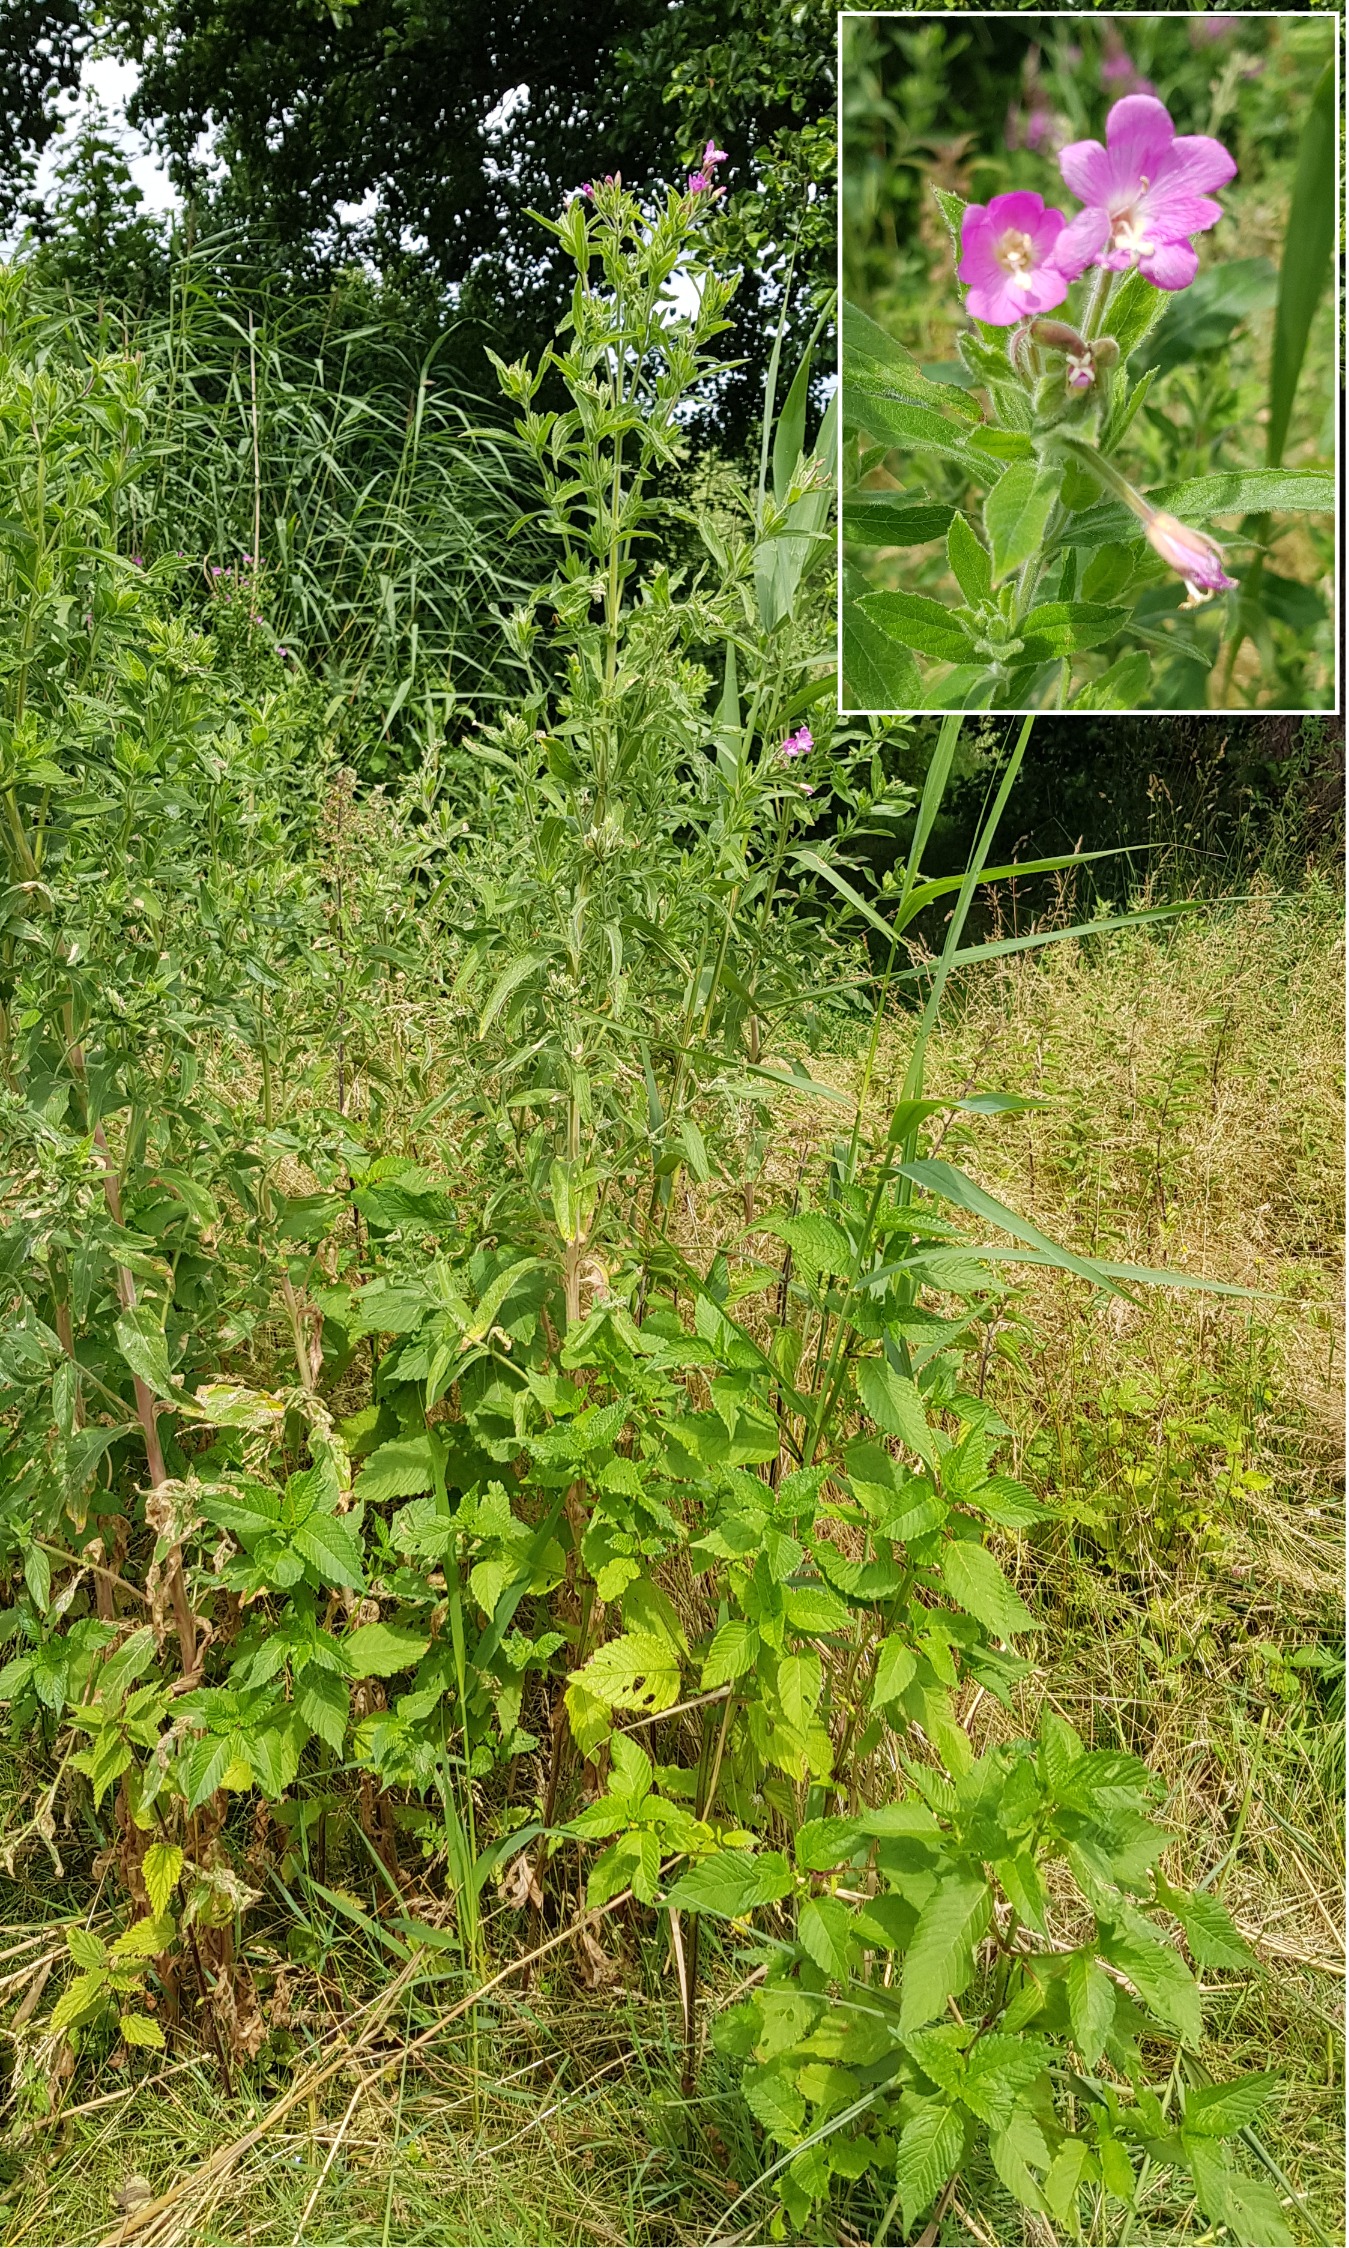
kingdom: Plantae
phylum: Tracheophyta
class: Magnoliopsida
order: Myrtales
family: Onagraceae
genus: Epilobium
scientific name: Epilobium hirsutum
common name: Lådden dueurt
